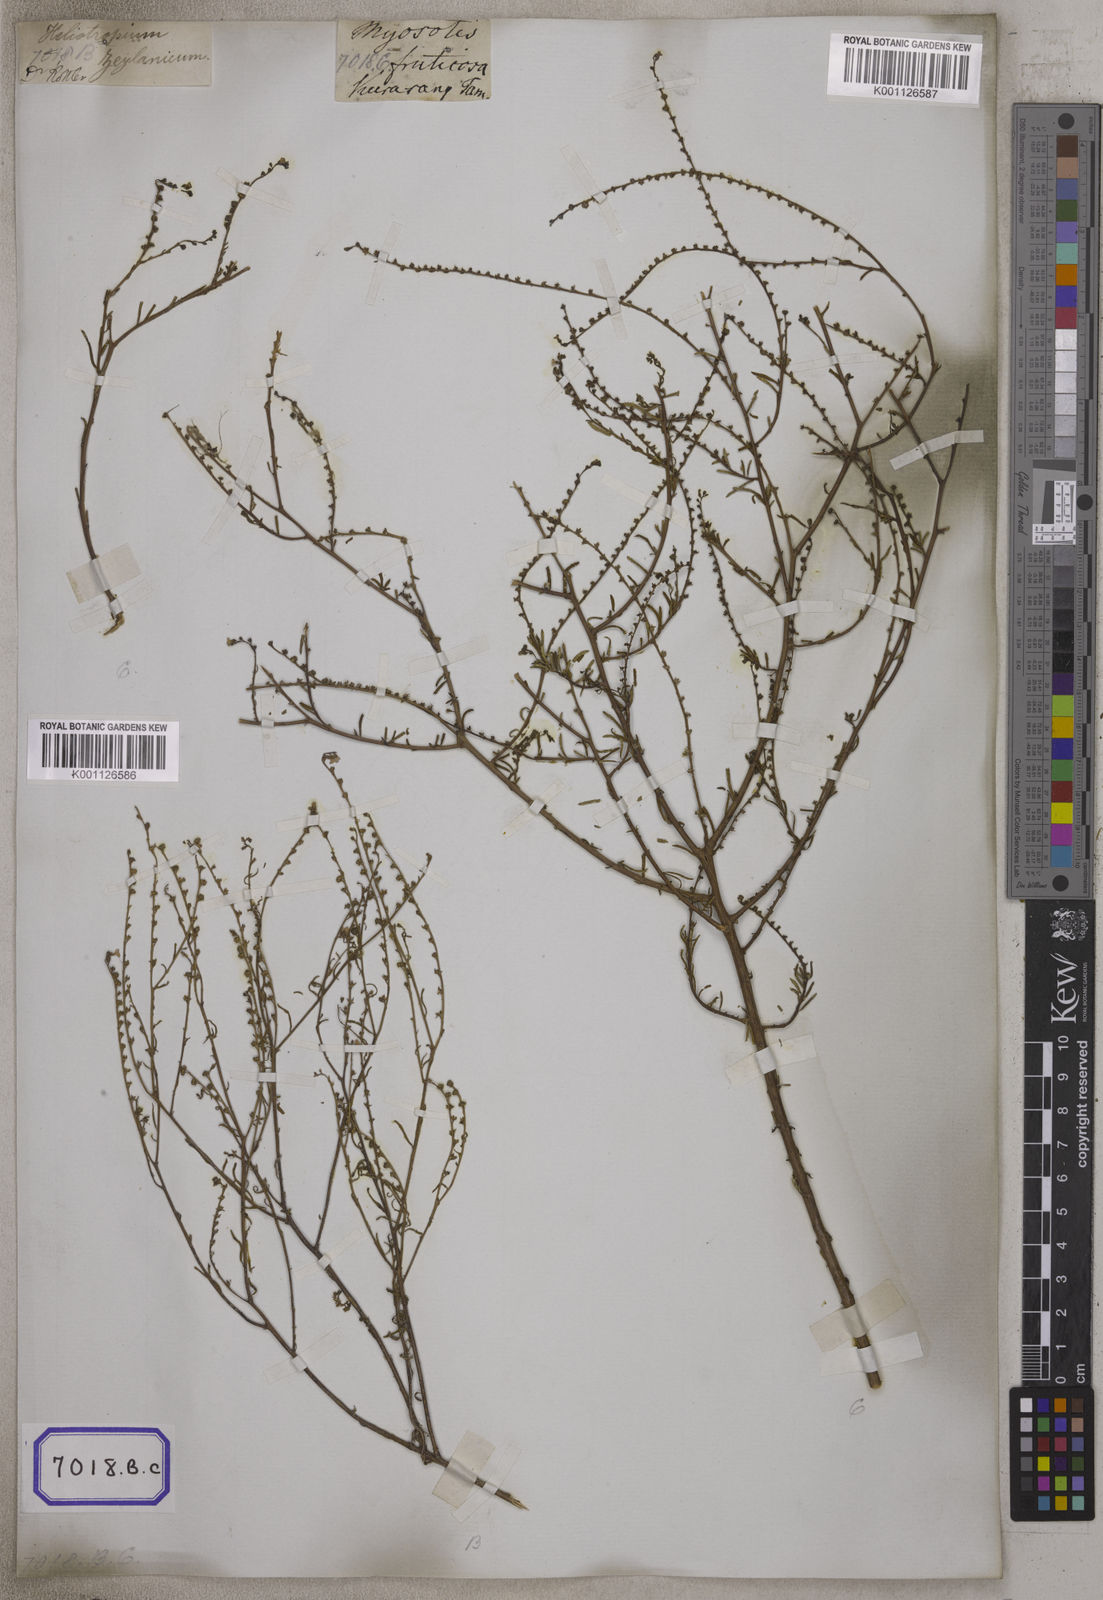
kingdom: Plantae
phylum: Tracheophyta
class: Magnoliopsida
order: Boraginales
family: Boraginaceae
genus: Cynoglossum
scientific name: Cynoglossum
